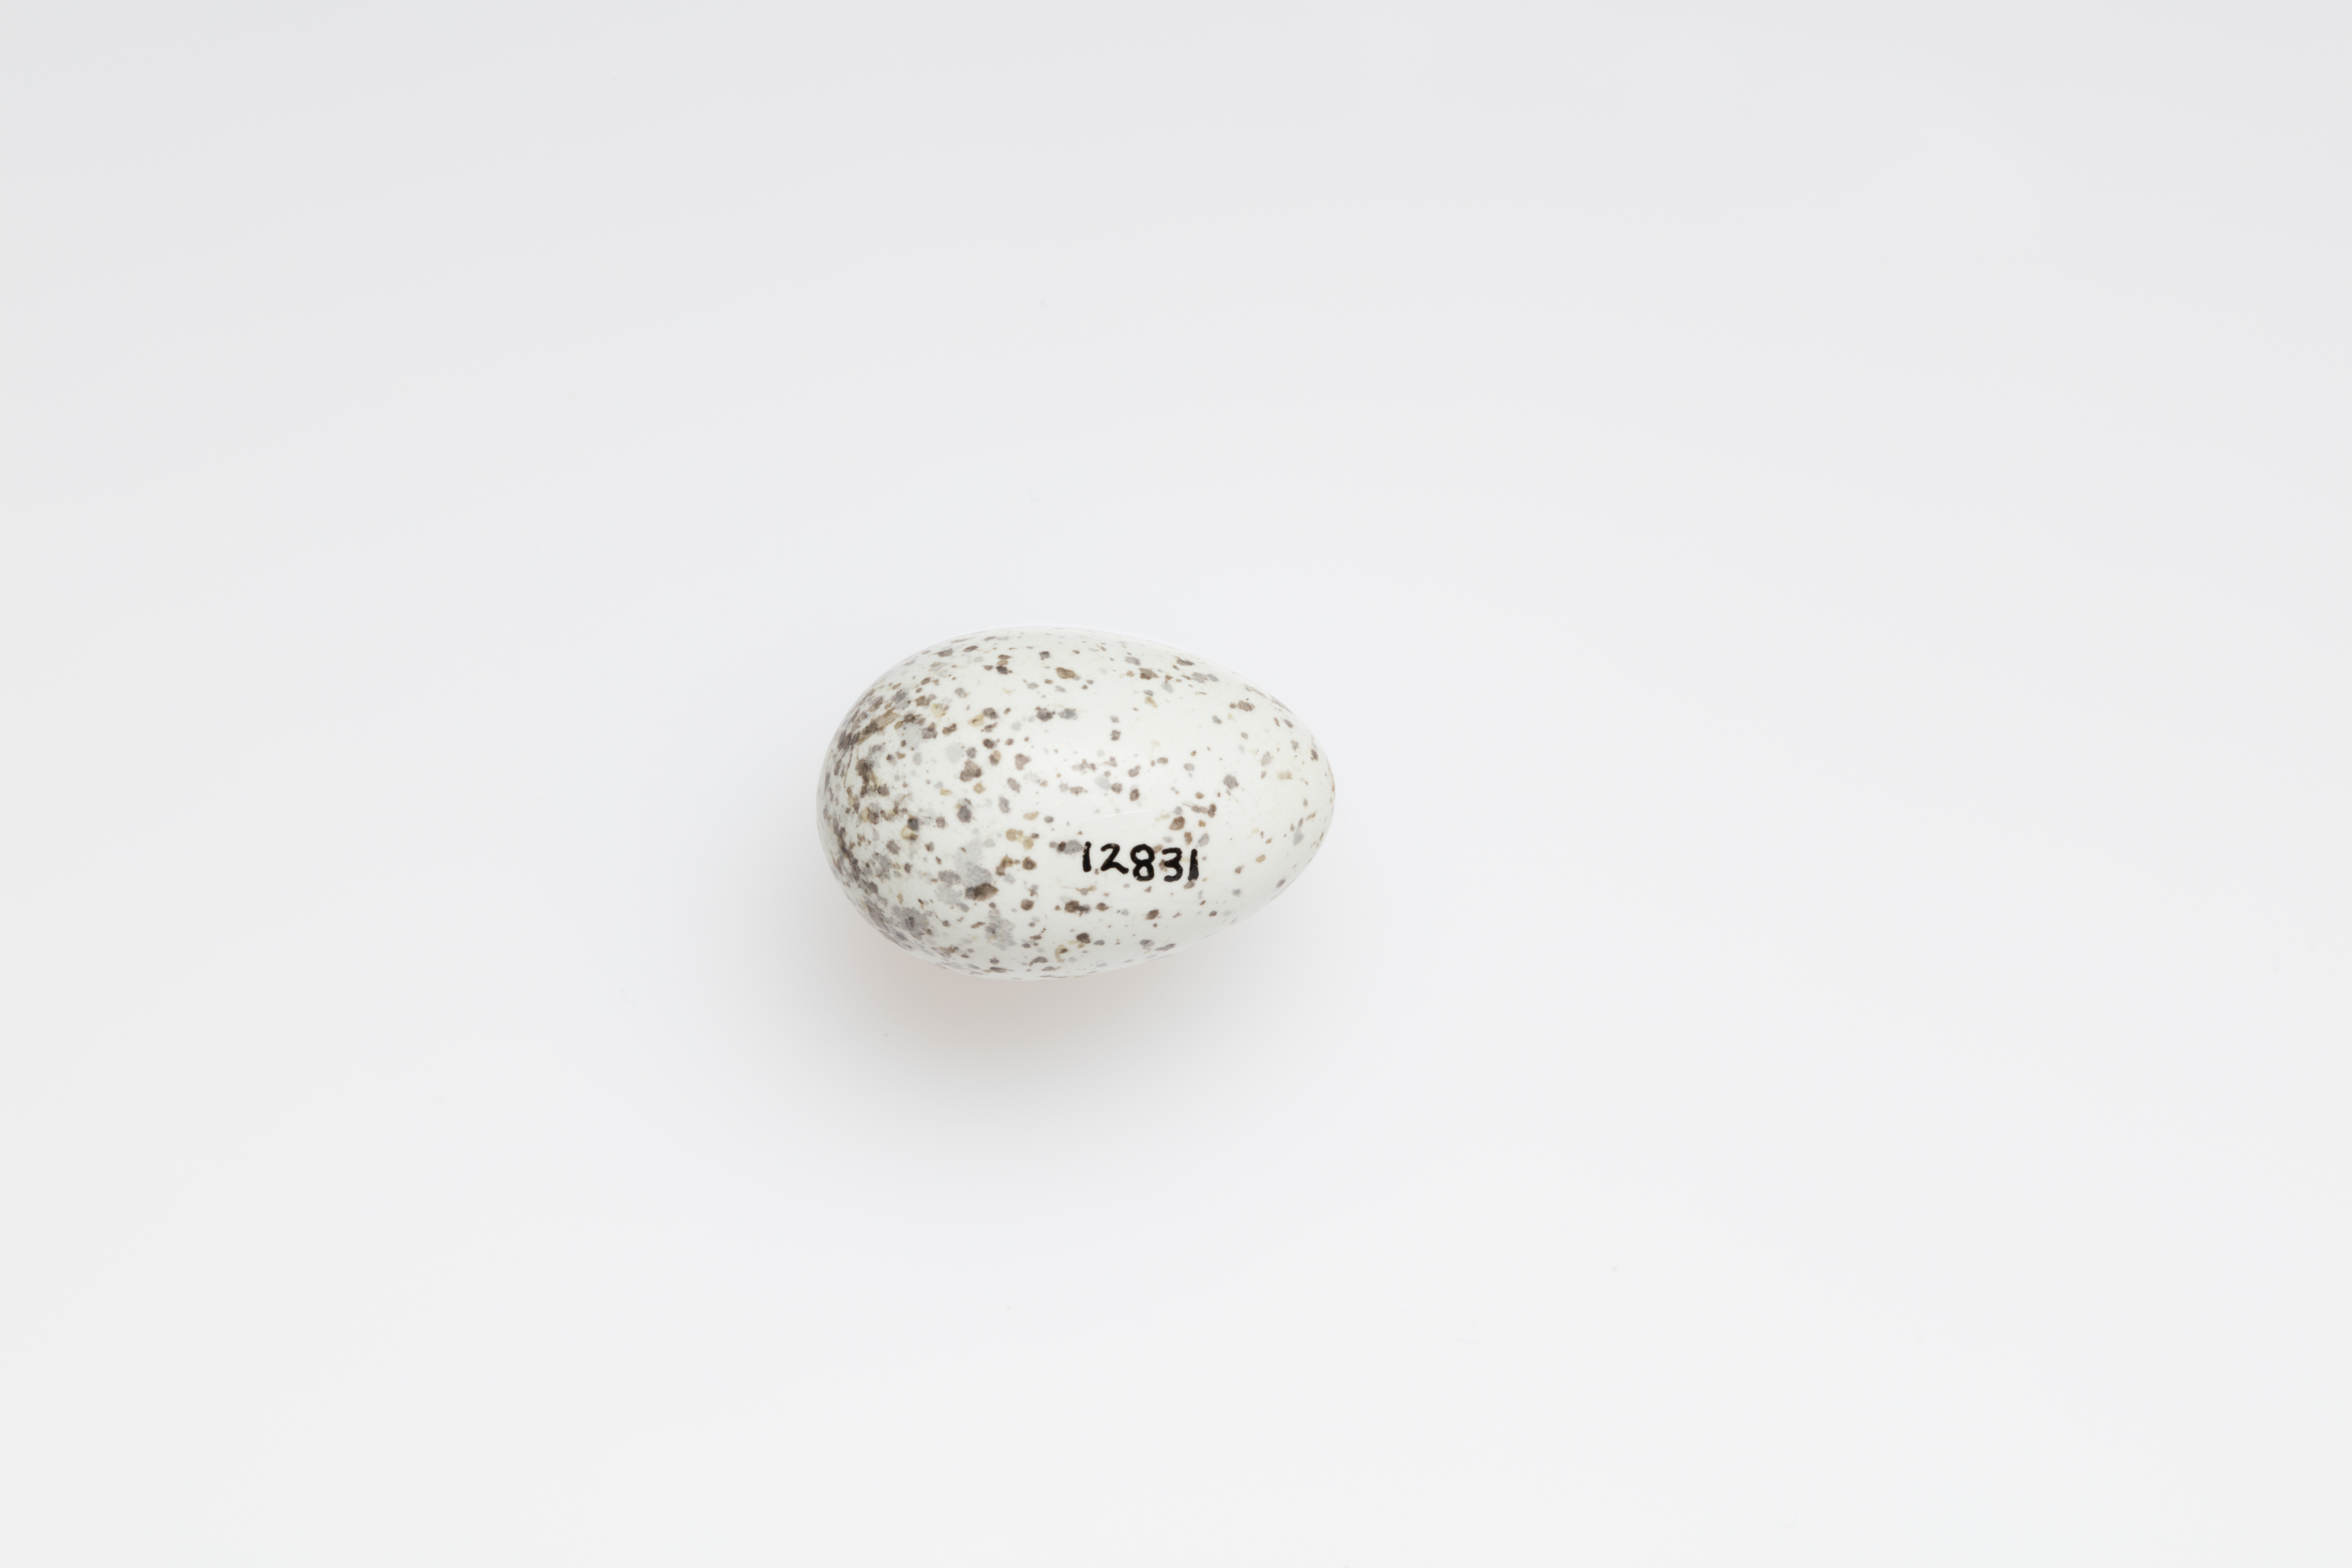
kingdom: Animalia
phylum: Chordata
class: Aves
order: Passeriformes
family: Passeridae
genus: Passer
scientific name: Passer domesticus
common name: House sparrow
